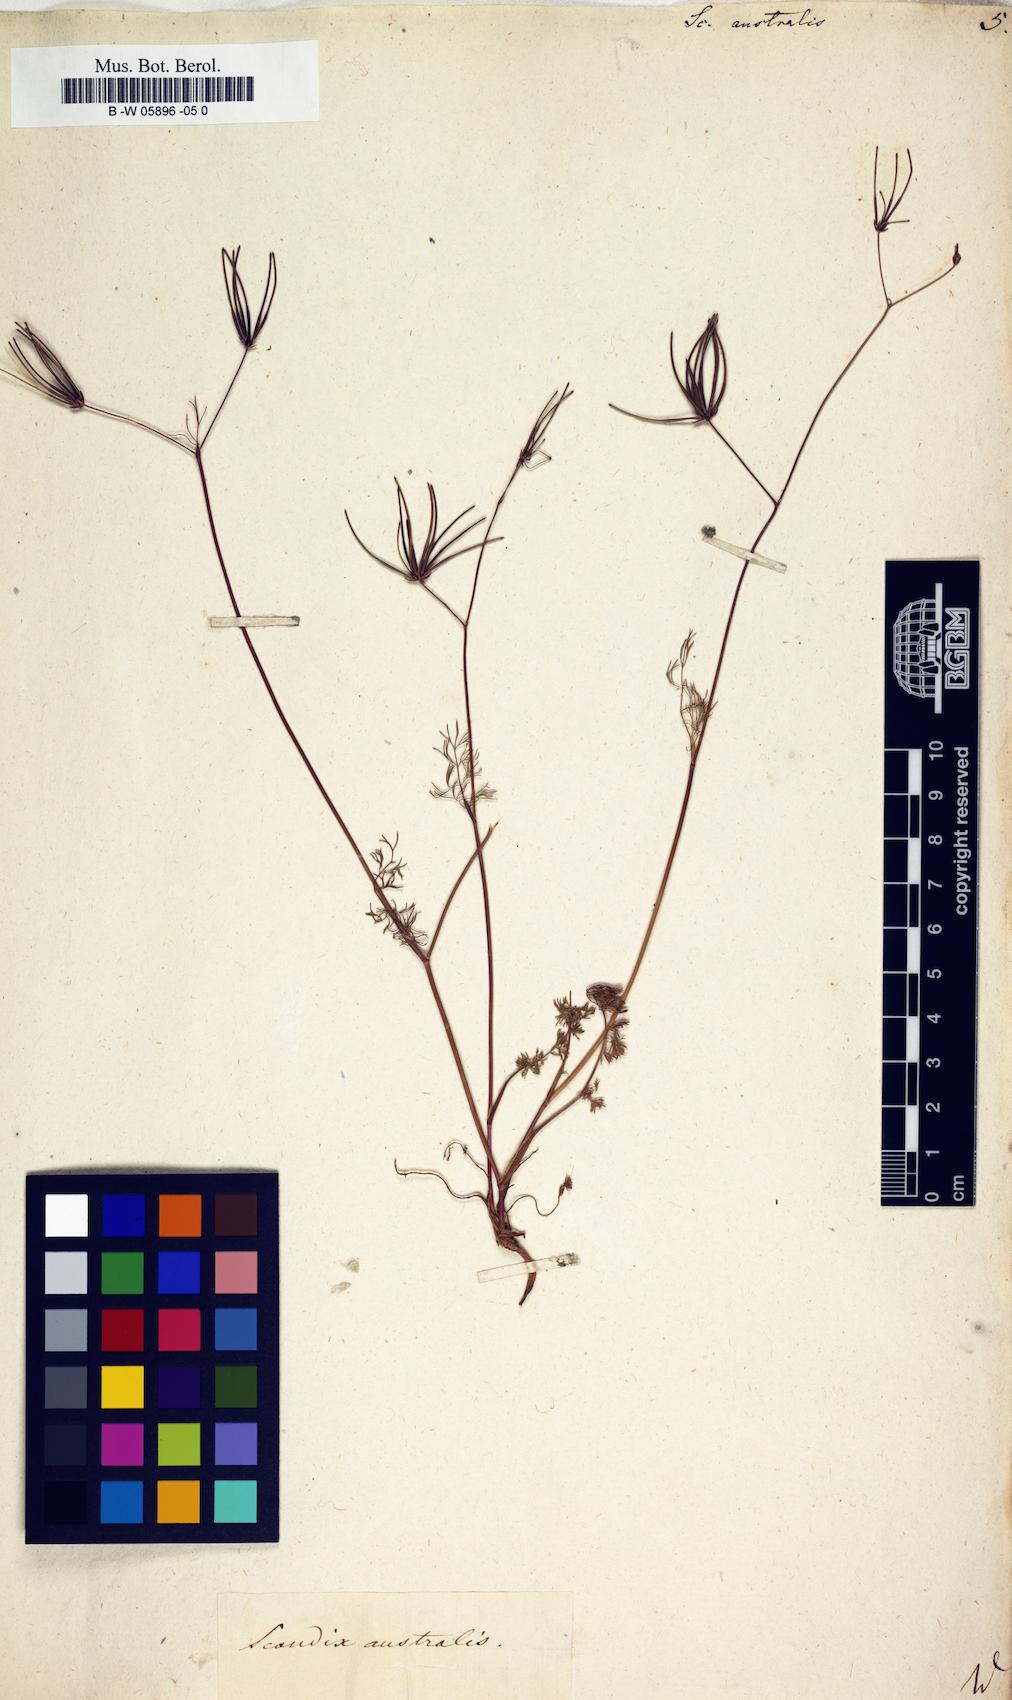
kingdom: Plantae
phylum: Tracheophyta
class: Magnoliopsida
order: Apiales
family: Apiaceae
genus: Scandix
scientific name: Scandix australis
